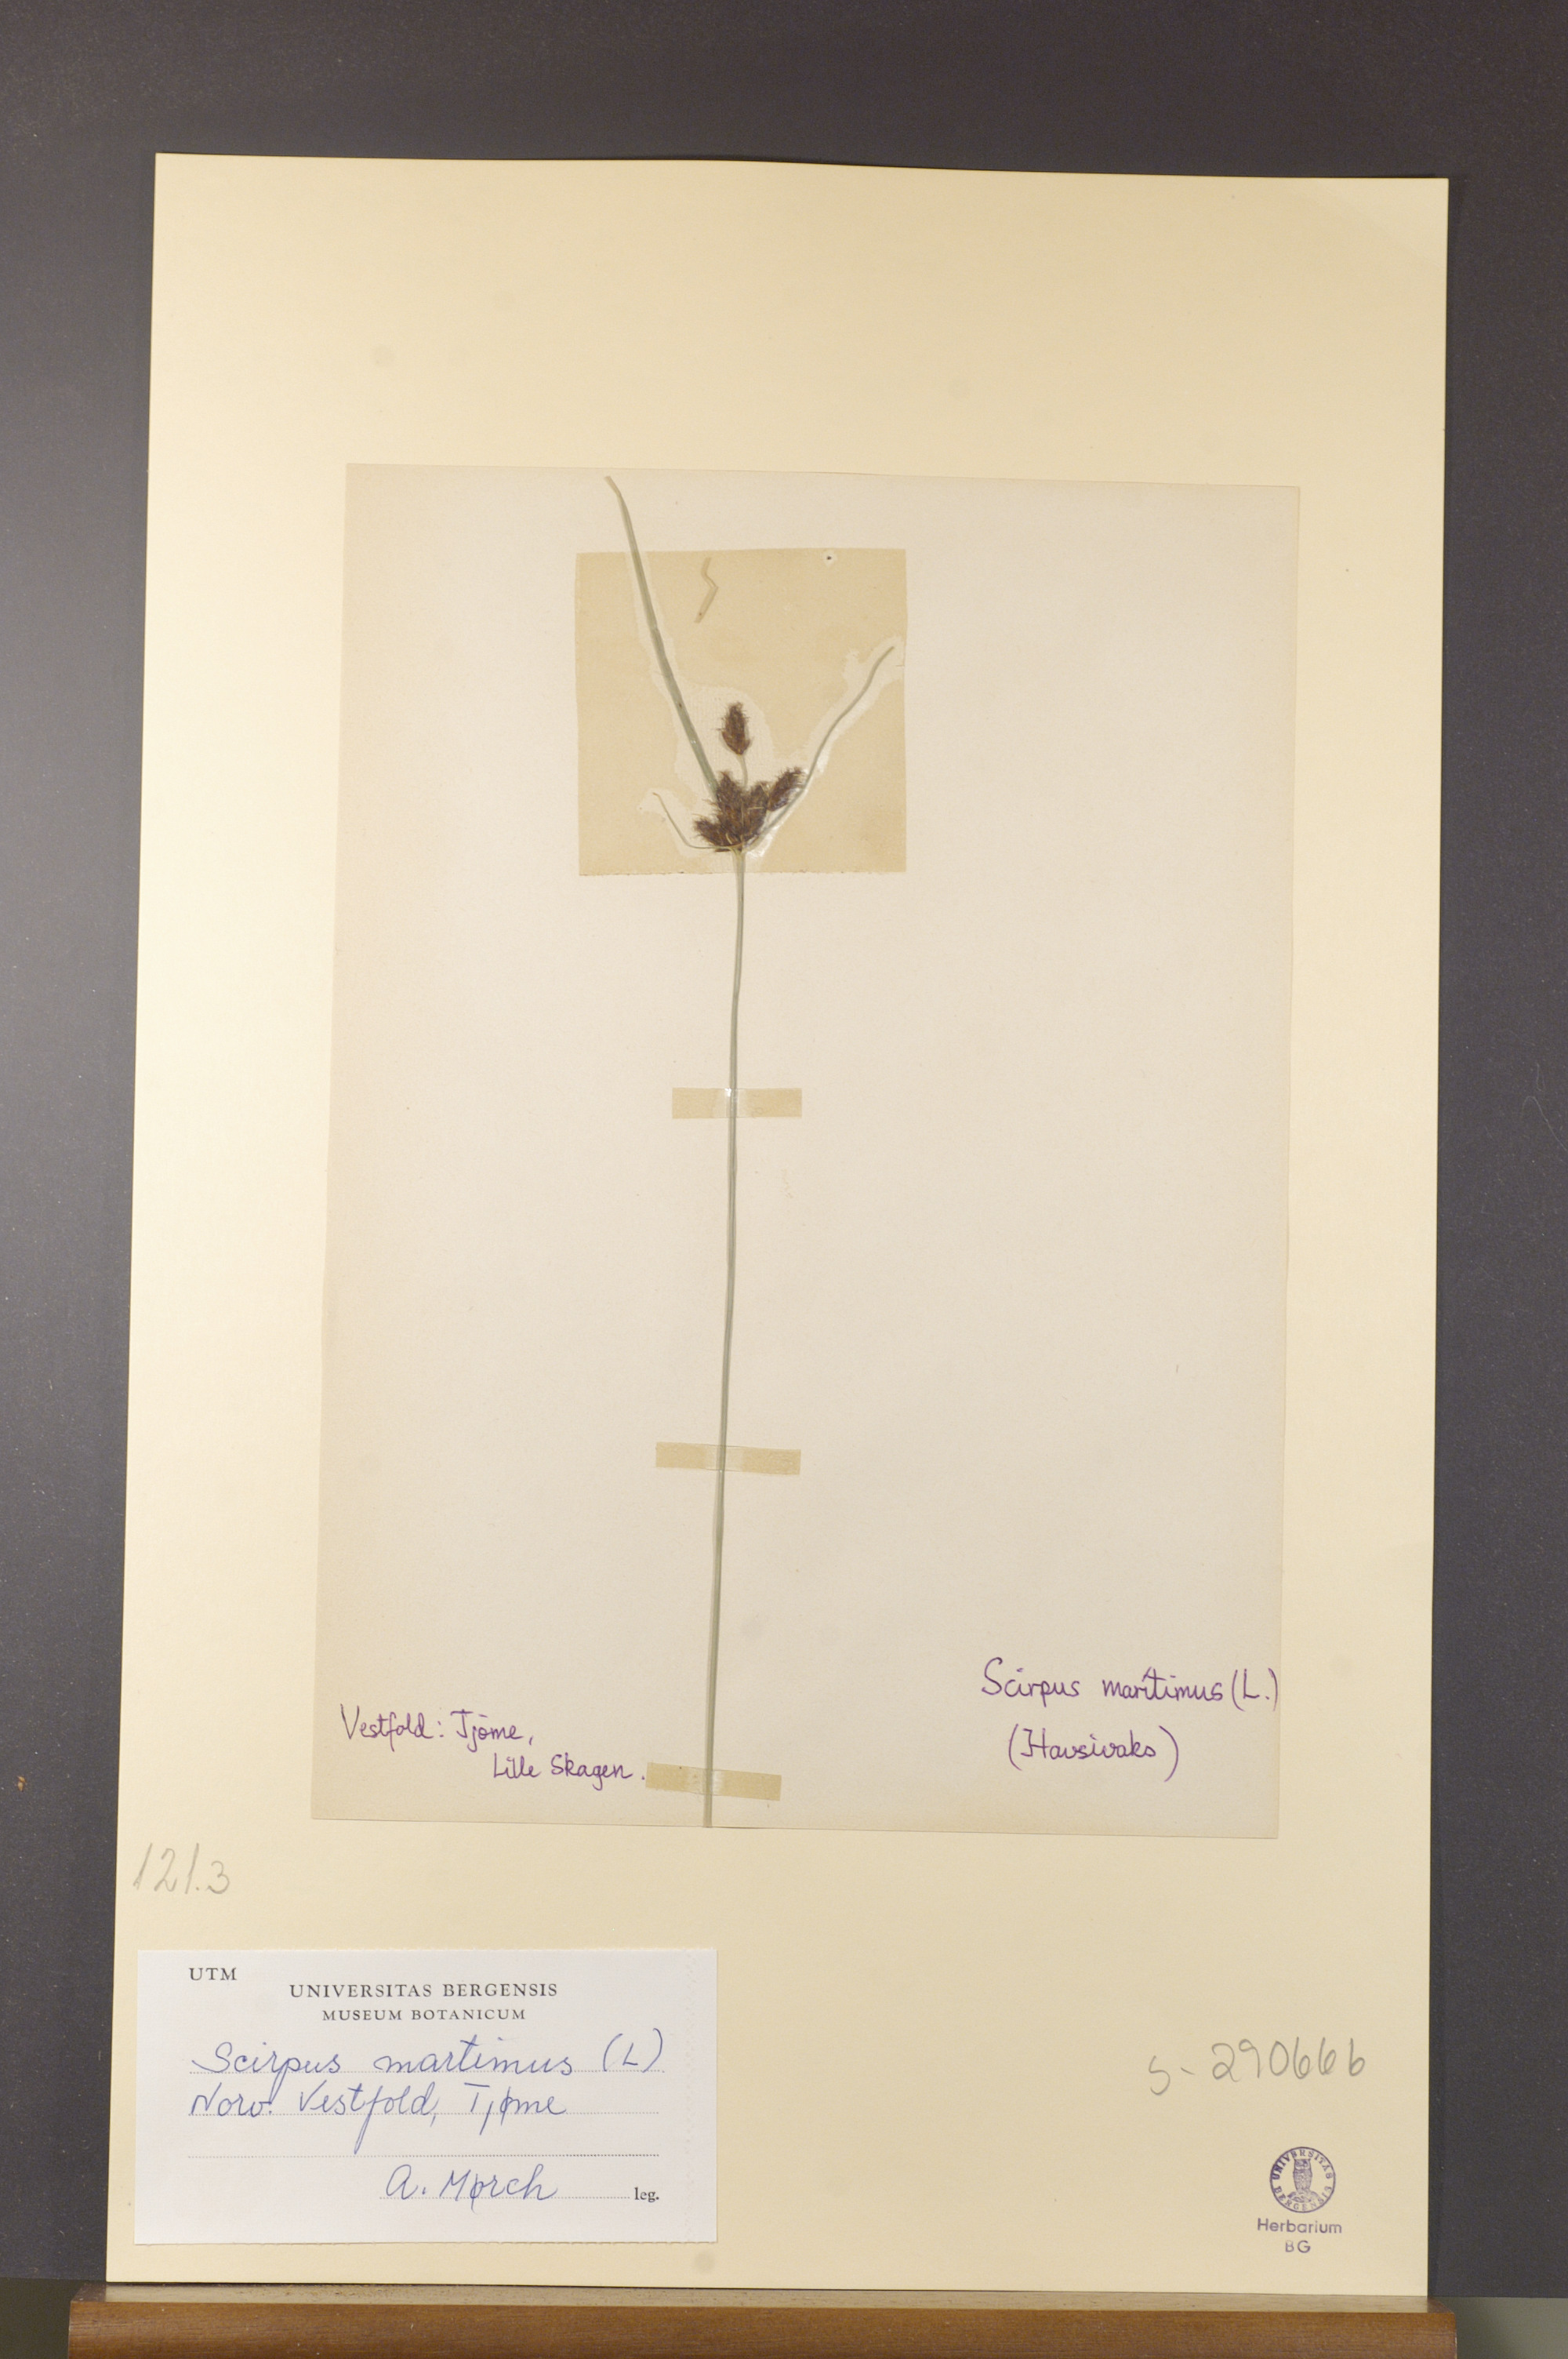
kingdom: Plantae
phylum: Tracheophyta
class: Liliopsida
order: Poales
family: Cyperaceae
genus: Bolboschoenus
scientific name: Bolboschoenus maritimus
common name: Sea club-rush
